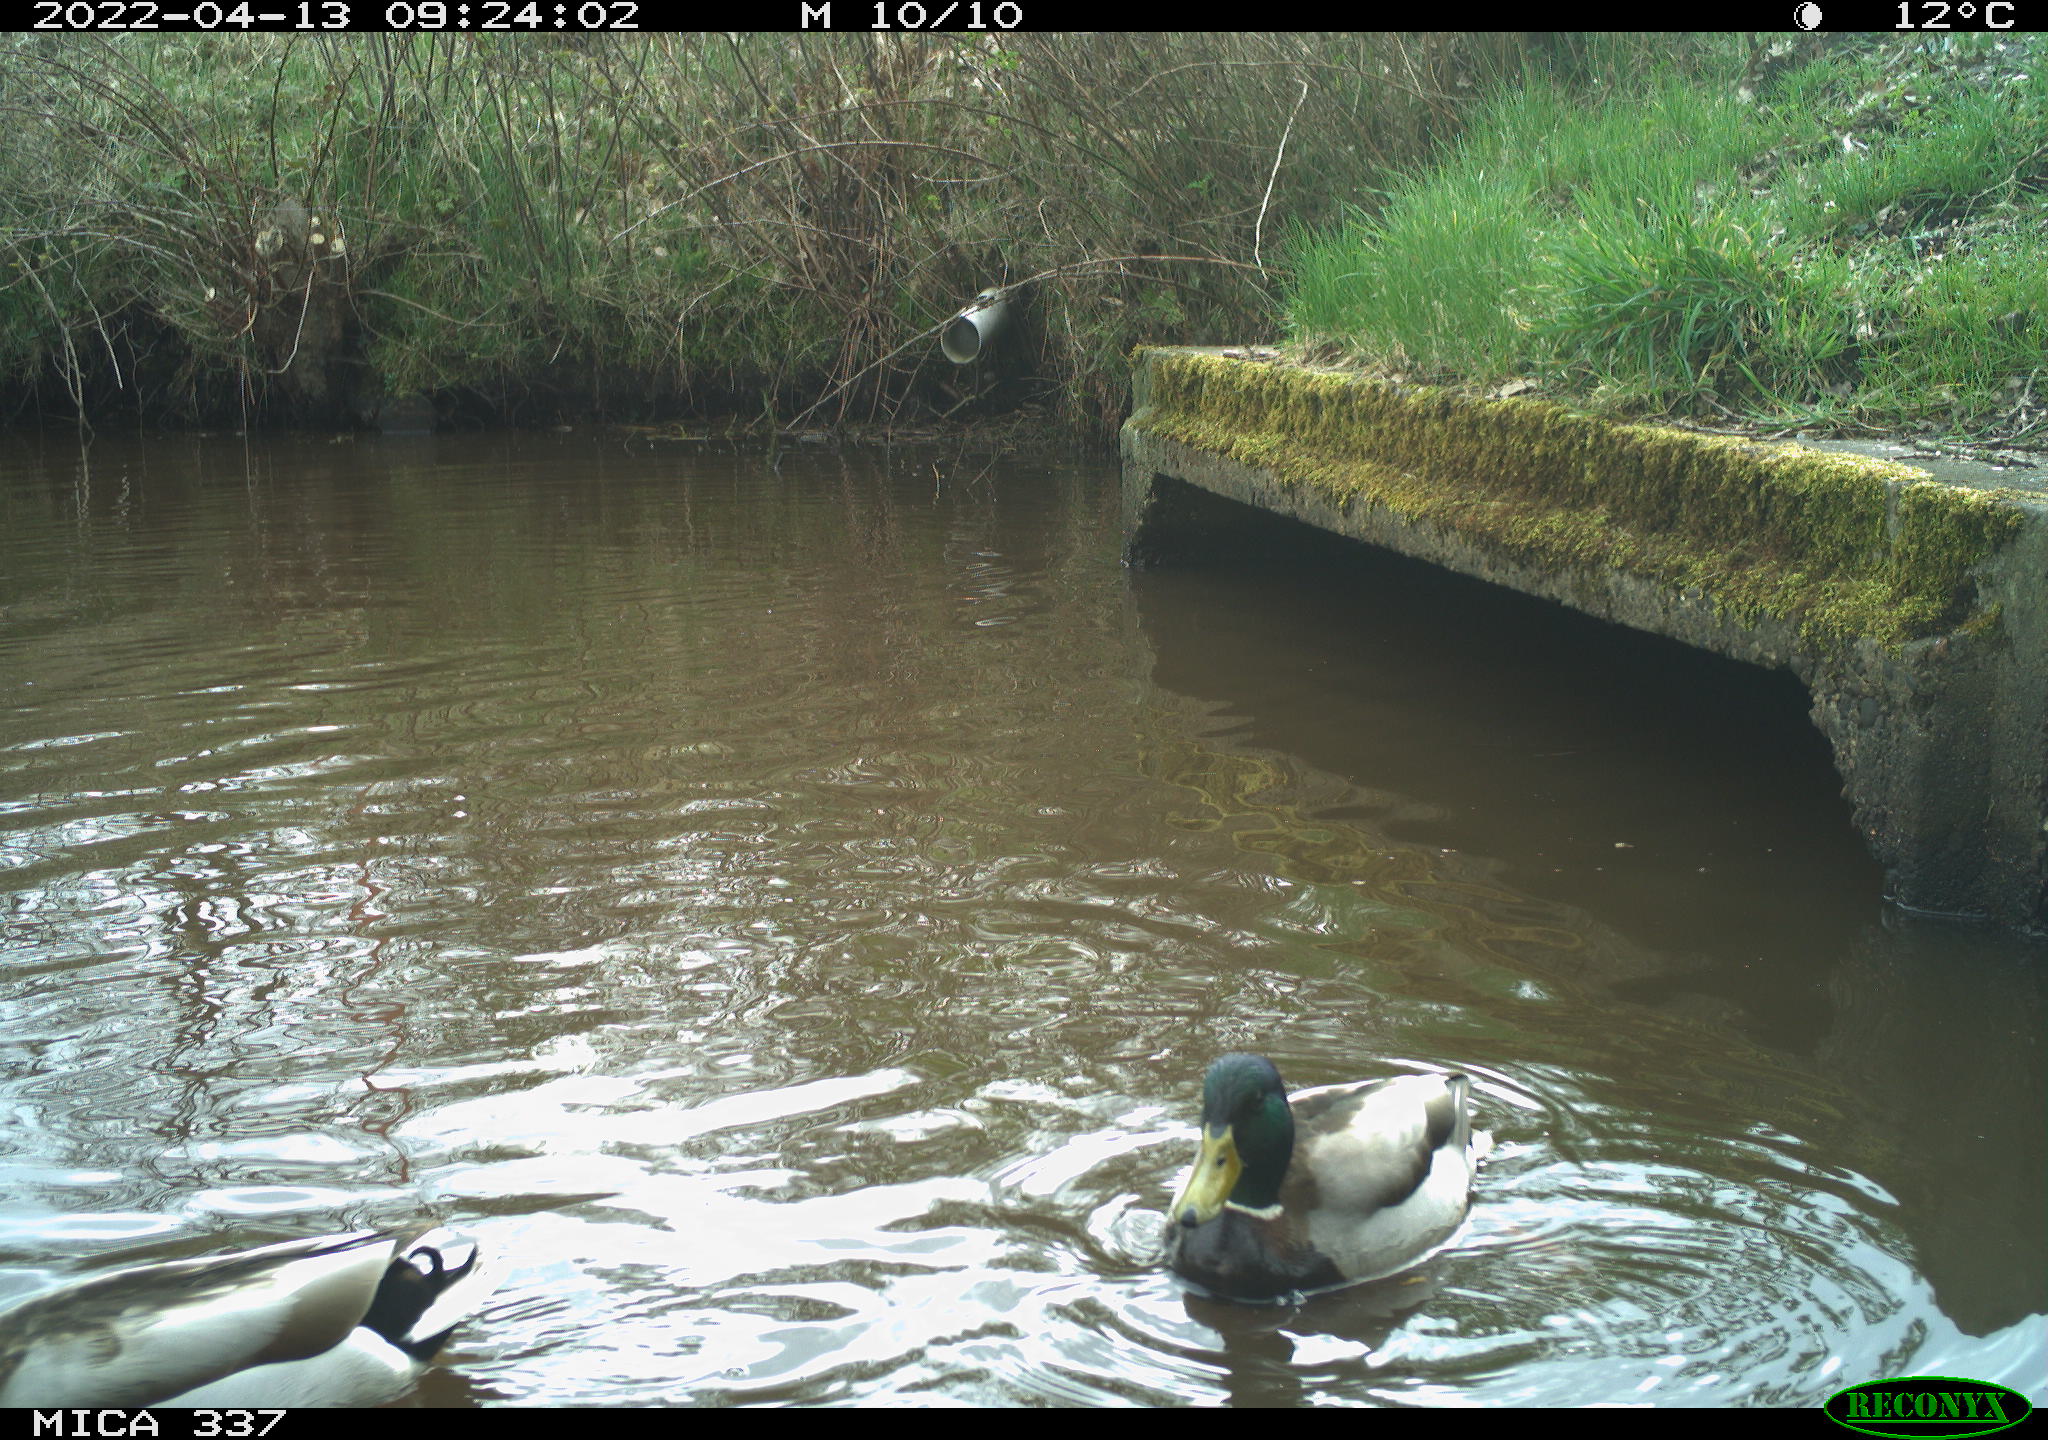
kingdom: Animalia
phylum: Chordata
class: Aves
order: Anseriformes
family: Anatidae
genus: Anas
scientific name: Anas platyrhynchos
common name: Mallard
